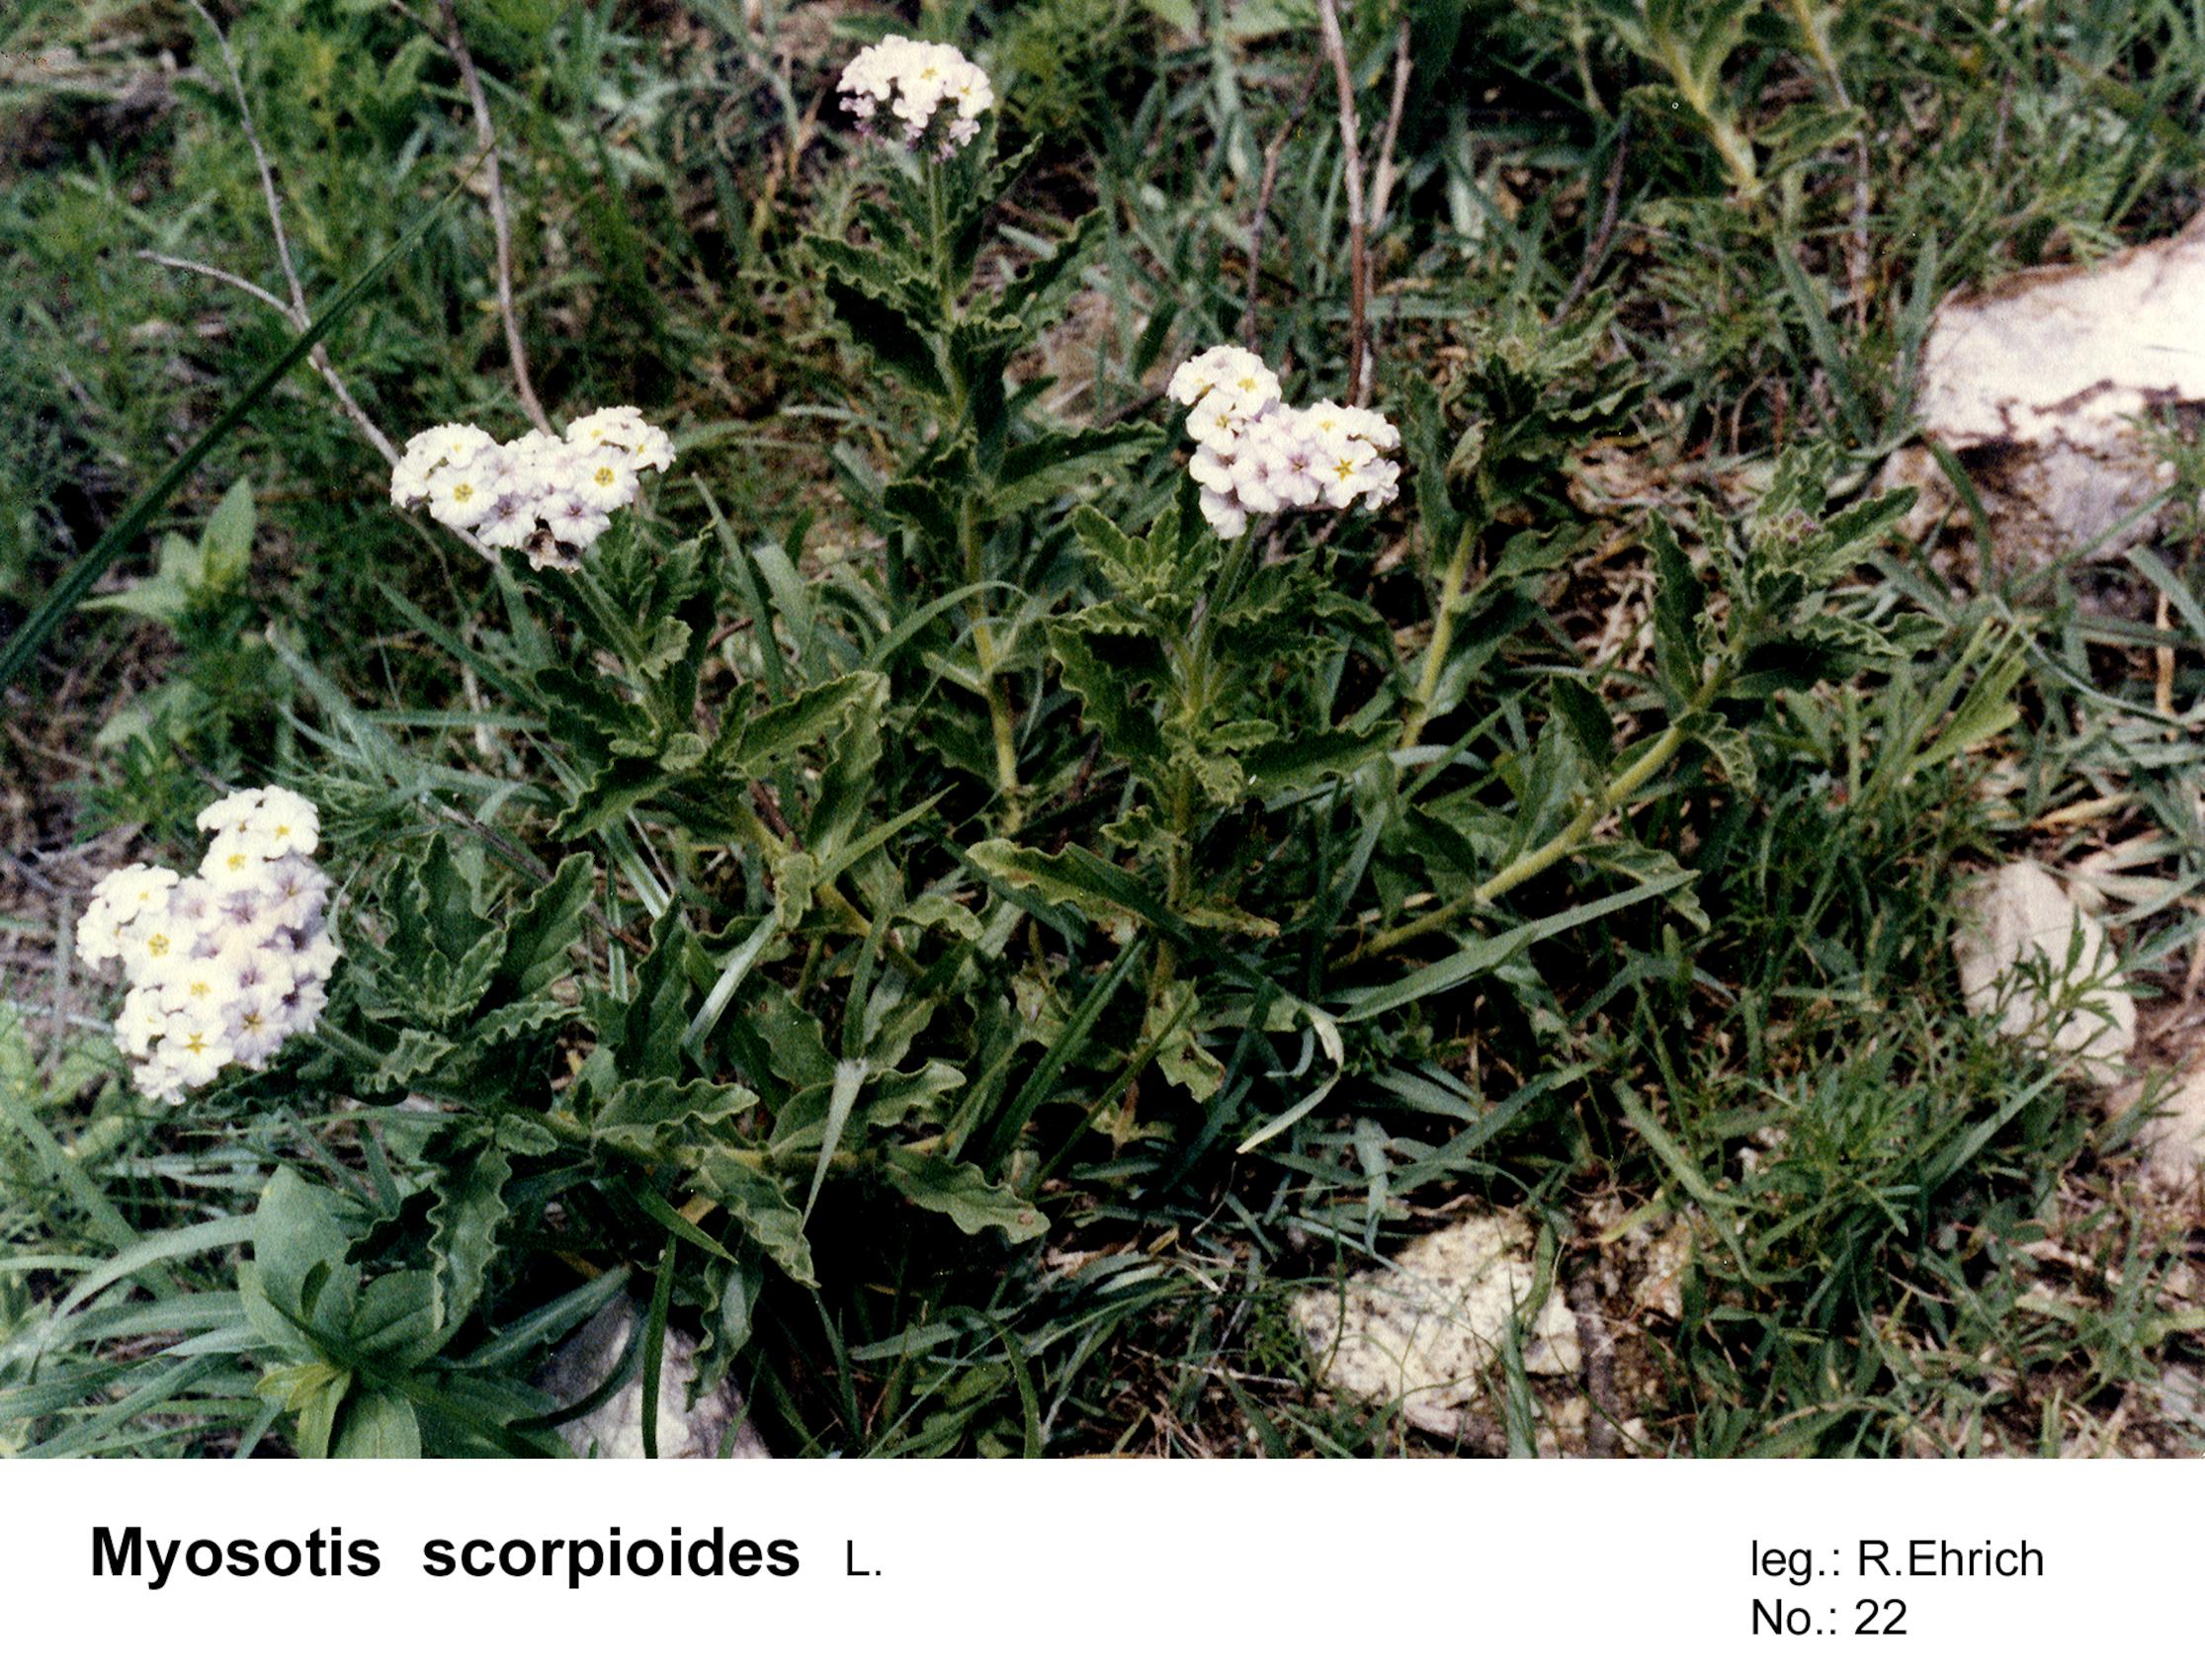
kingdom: Plantae
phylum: Tracheophyta
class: Magnoliopsida
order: Boraginales
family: Boraginaceae
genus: Myosotis
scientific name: Myosotis scorpioides
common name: Water forget-me-not
